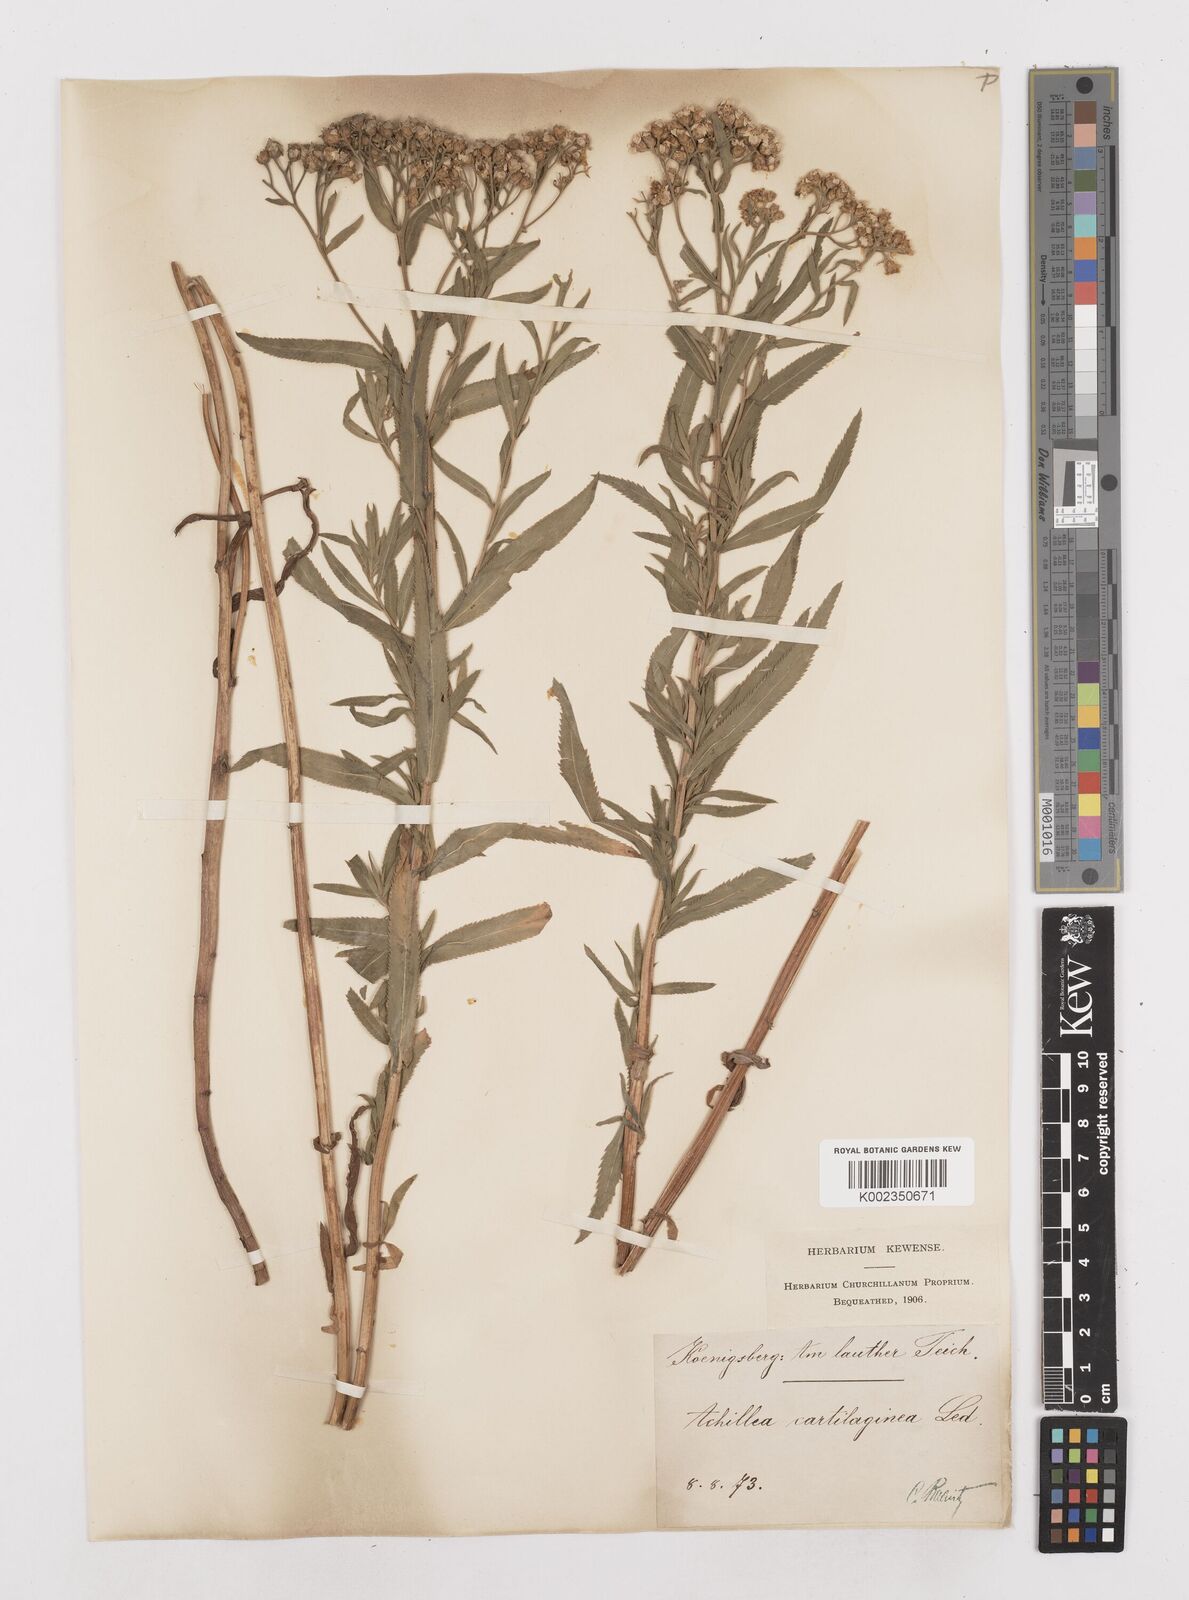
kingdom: Plantae
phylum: Tracheophyta
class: Magnoliopsida
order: Asterales
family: Asteraceae
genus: Achillea
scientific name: Achillea salicifolia
